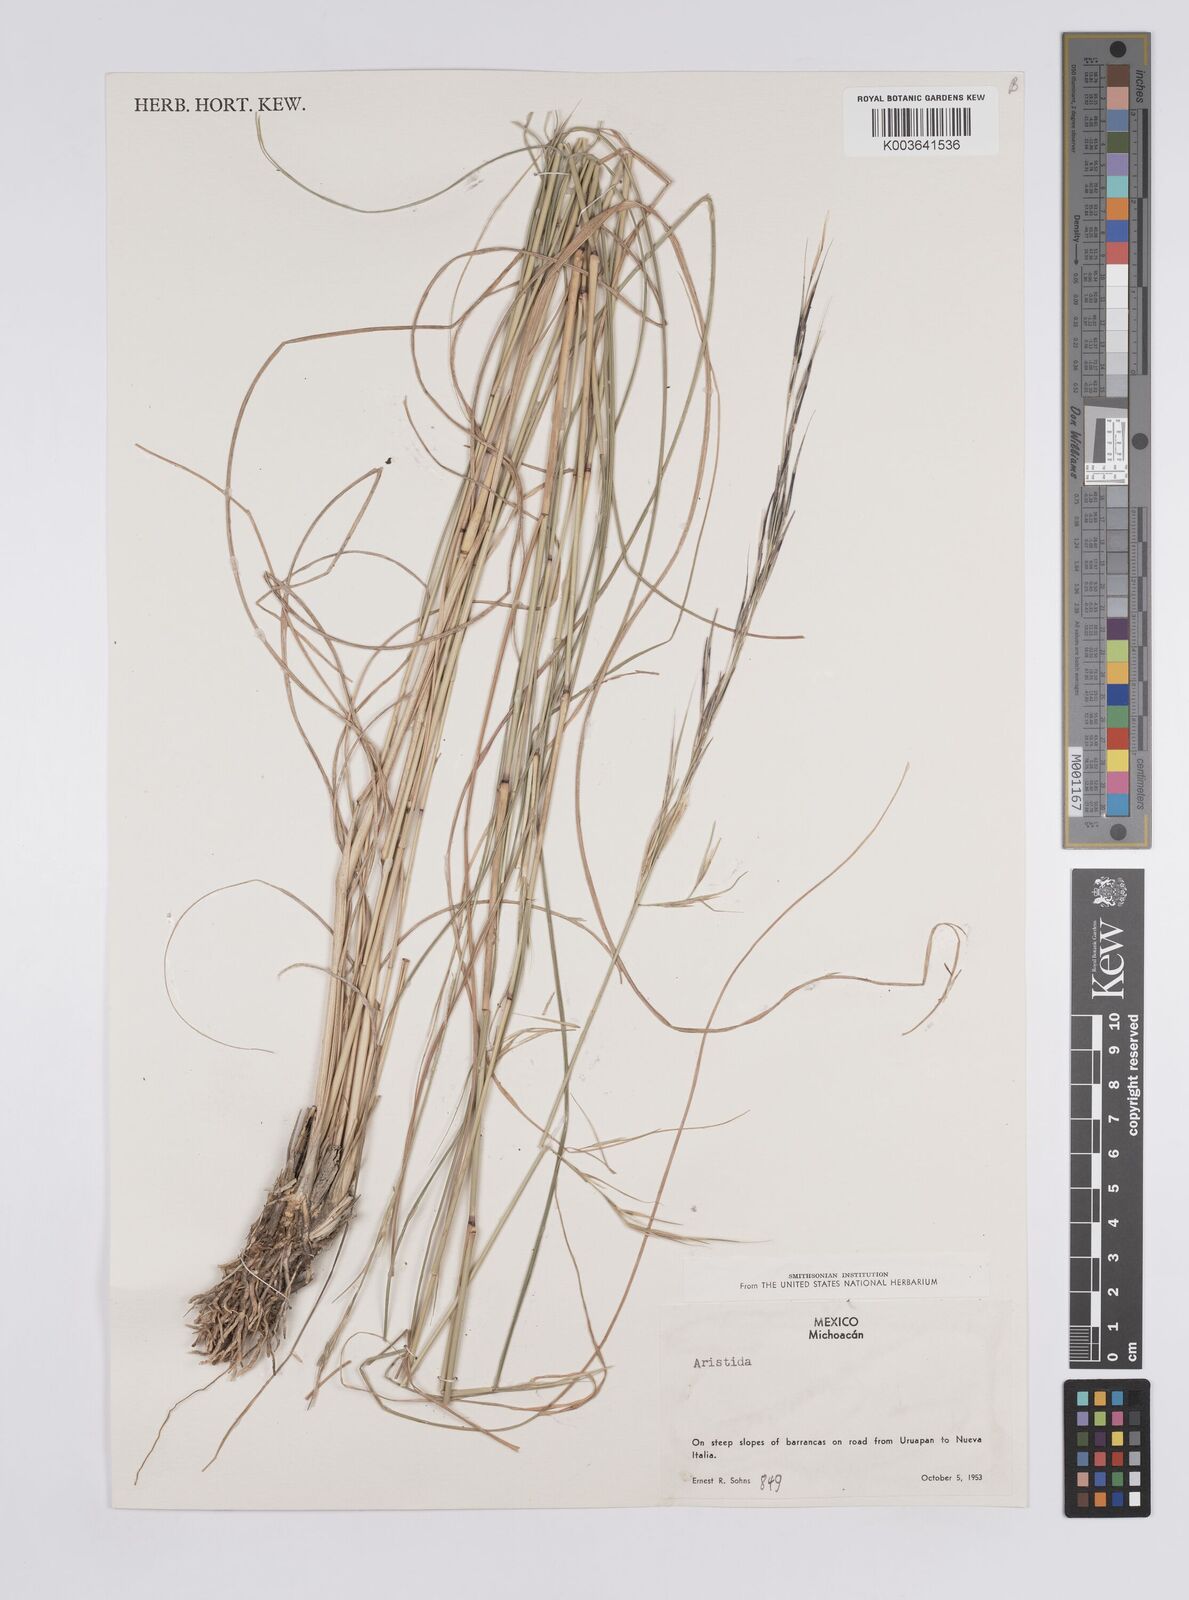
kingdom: Plantae
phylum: Tracheophyta
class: Liliopsida
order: Poales
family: Poaceae
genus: Aristida
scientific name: Aristida
